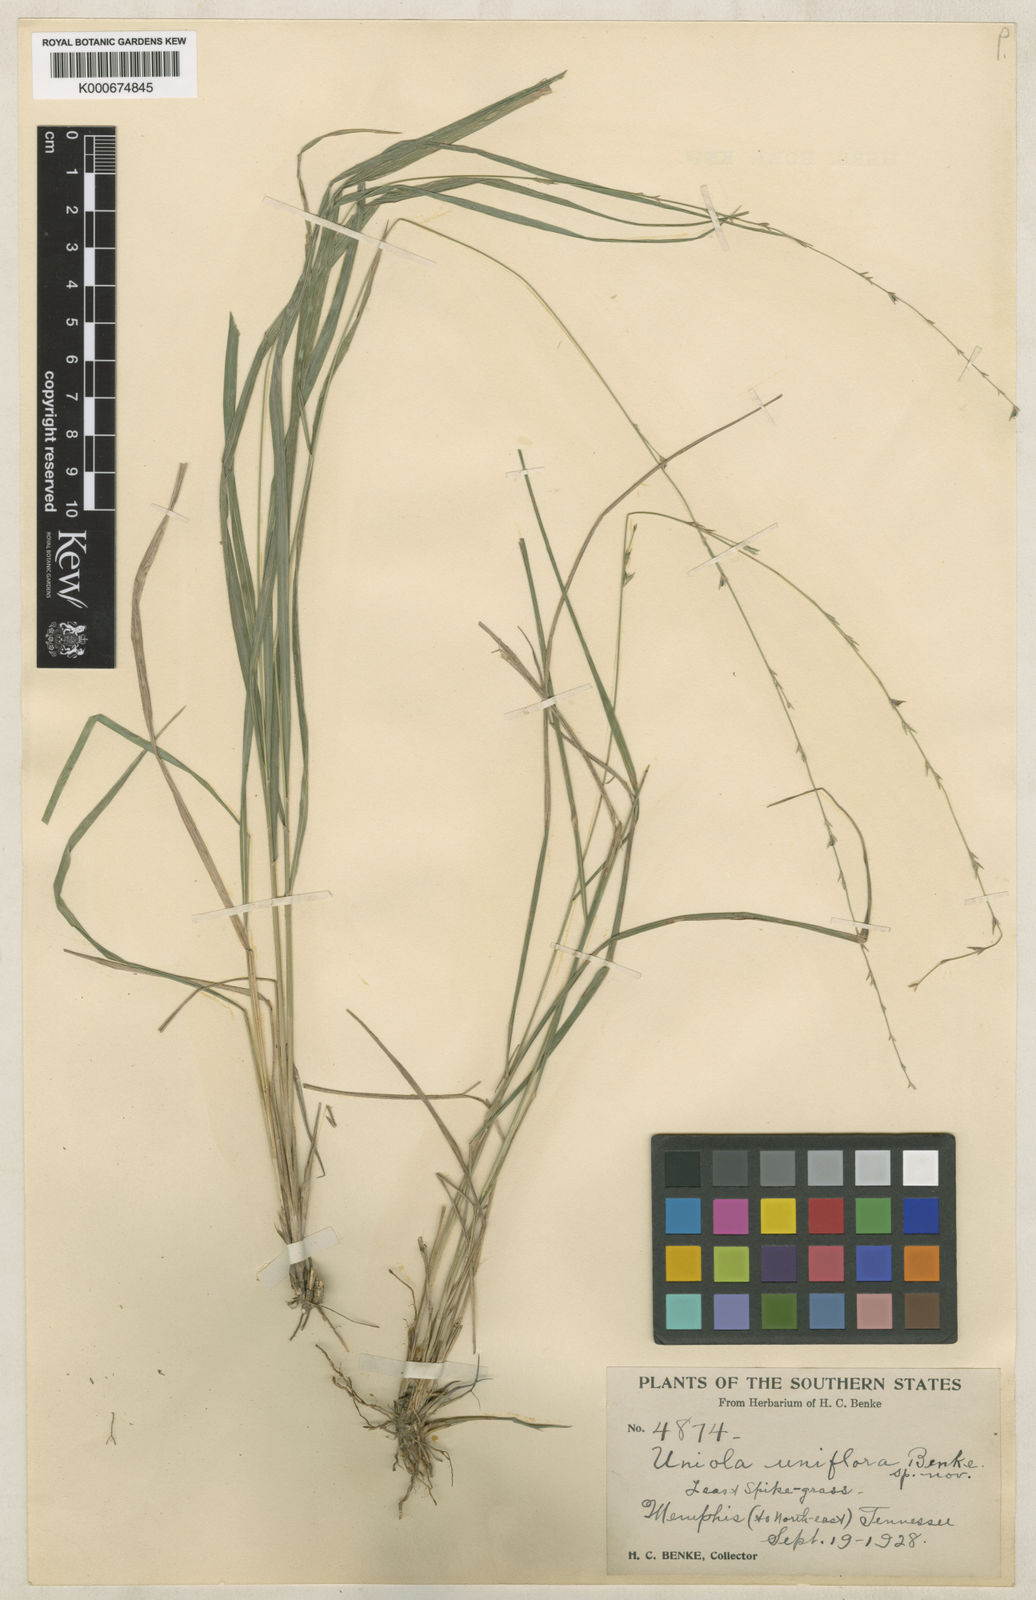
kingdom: Plantae
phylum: Tracheophyta
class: Liliopsida
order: Poales
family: Poaceae
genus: Chasmanthium
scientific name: Chasmanthium laxum
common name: Slender chasmanthium
